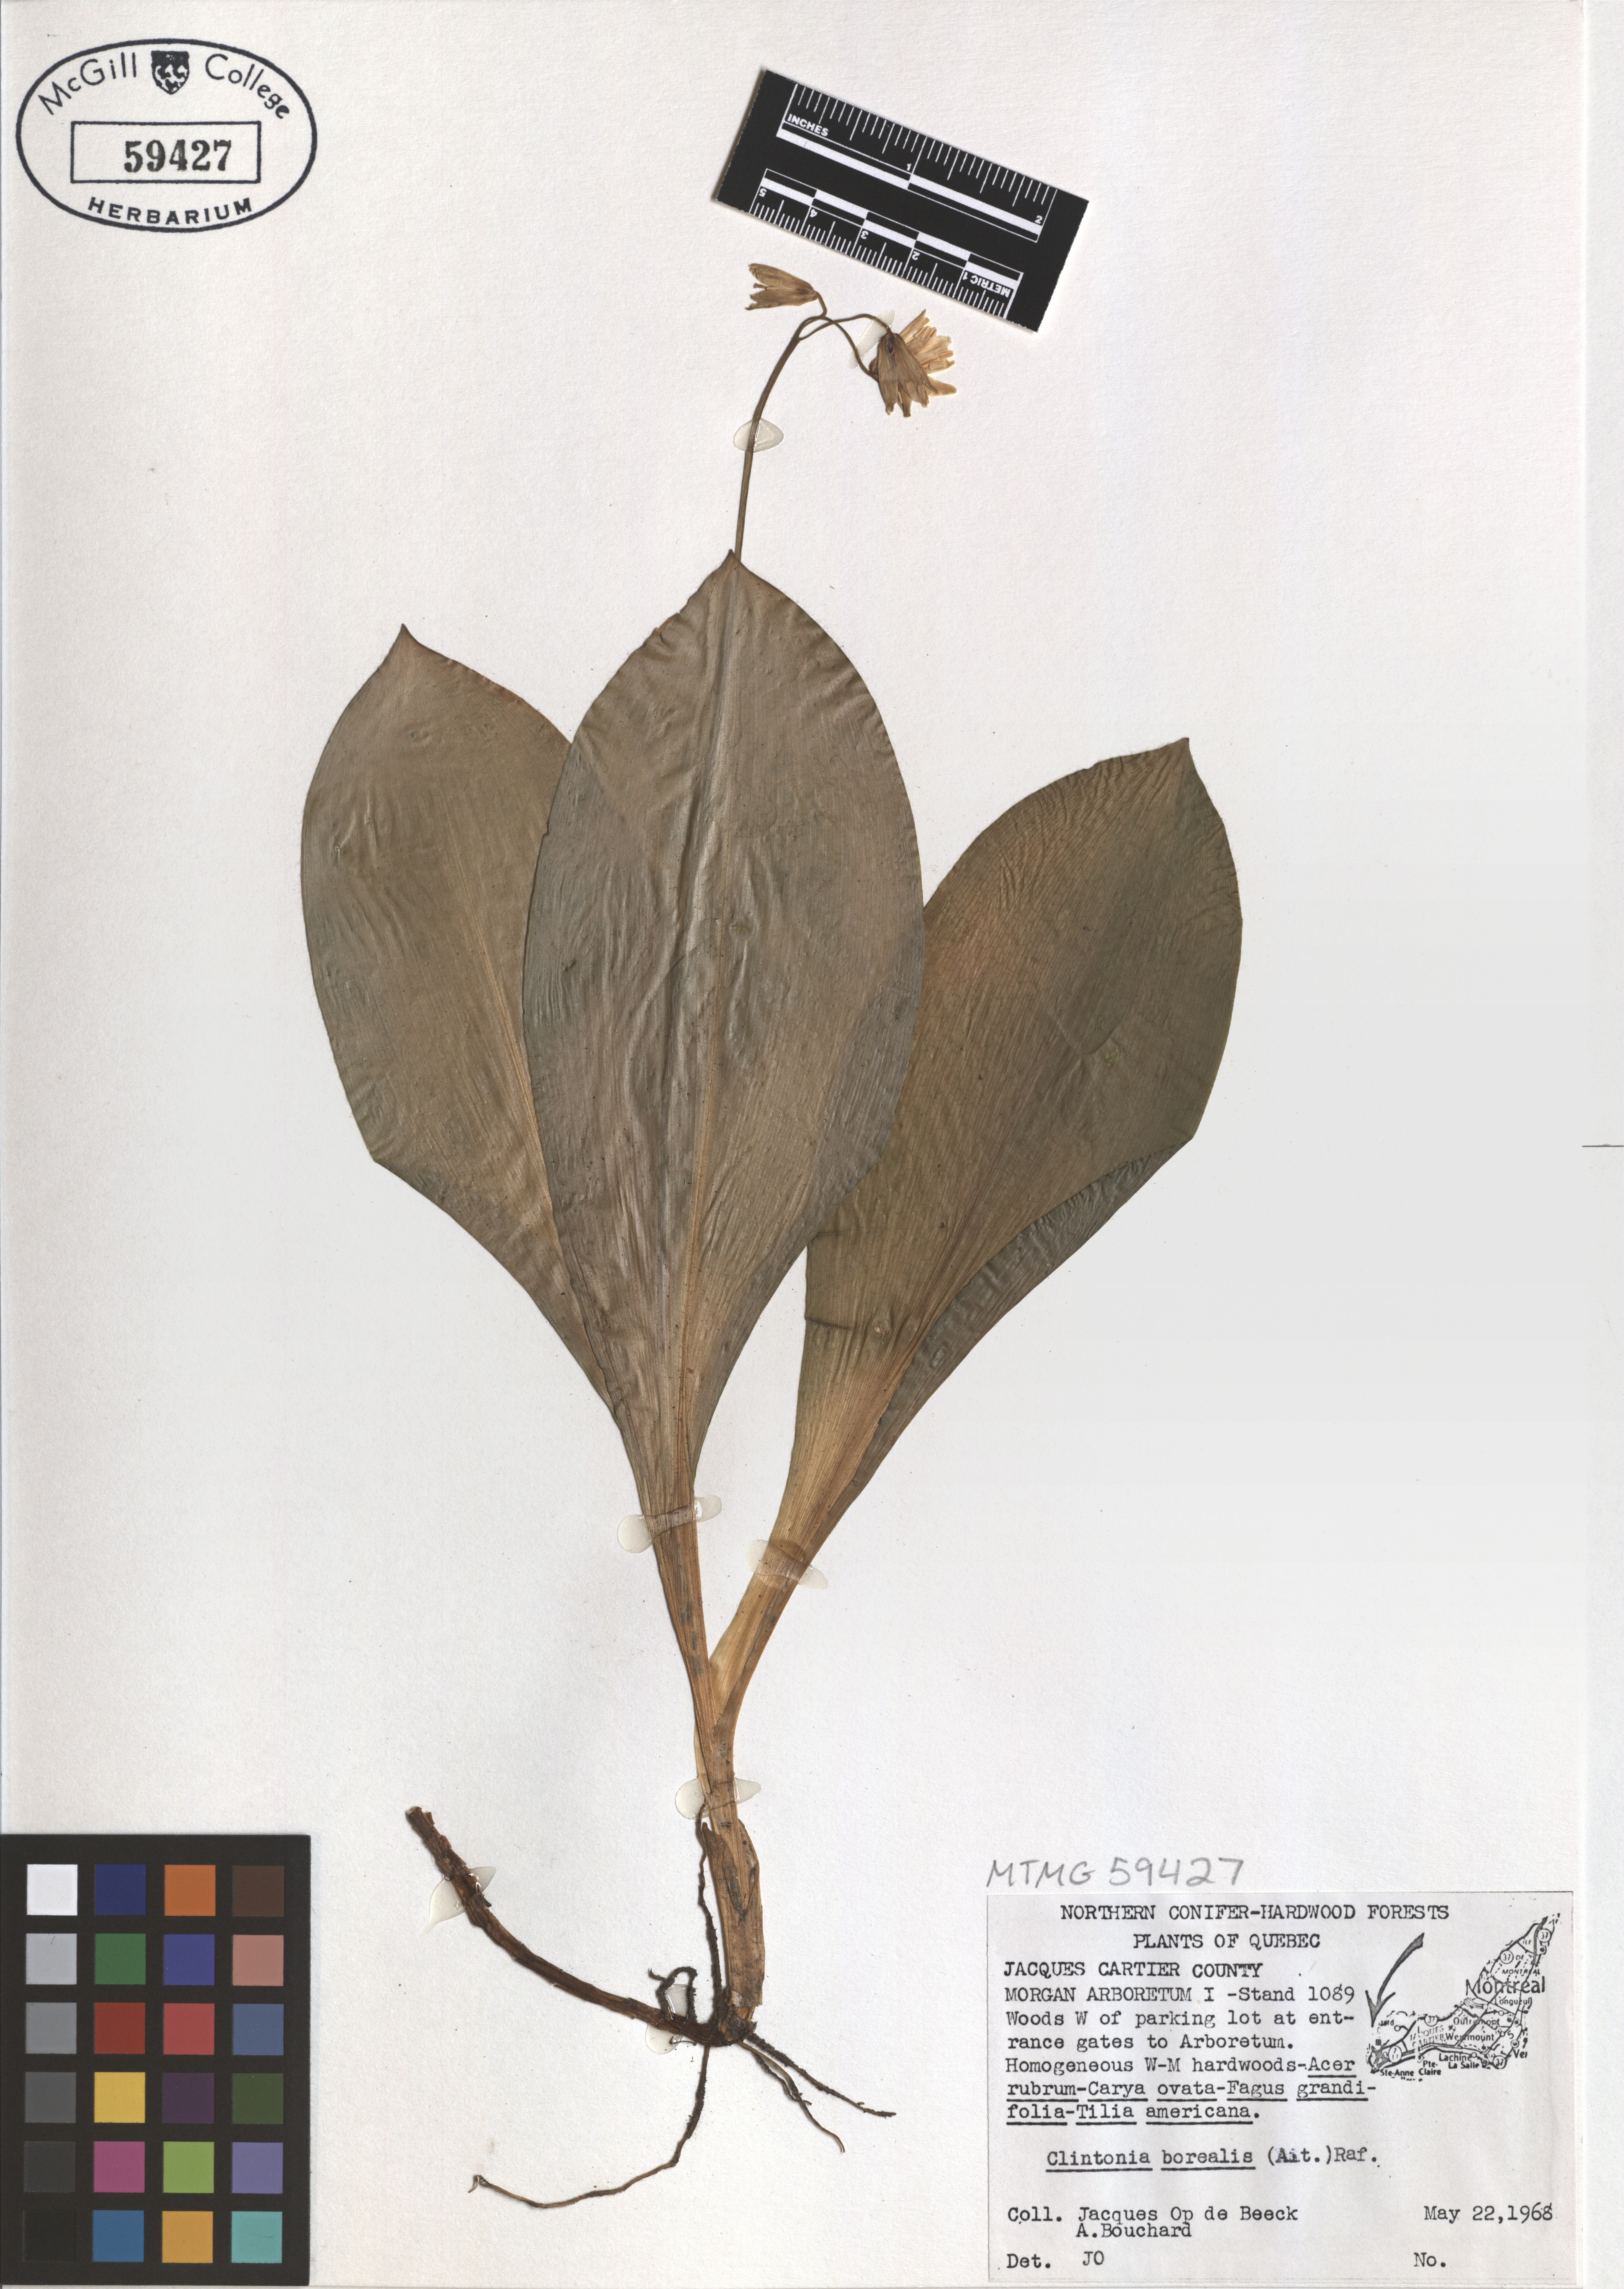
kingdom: Plantae
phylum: Tracheophyta
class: Liliopsida
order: Liliales
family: Liliaceae
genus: Clintonia
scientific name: Clintonia borealis
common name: Yellow clintonia
